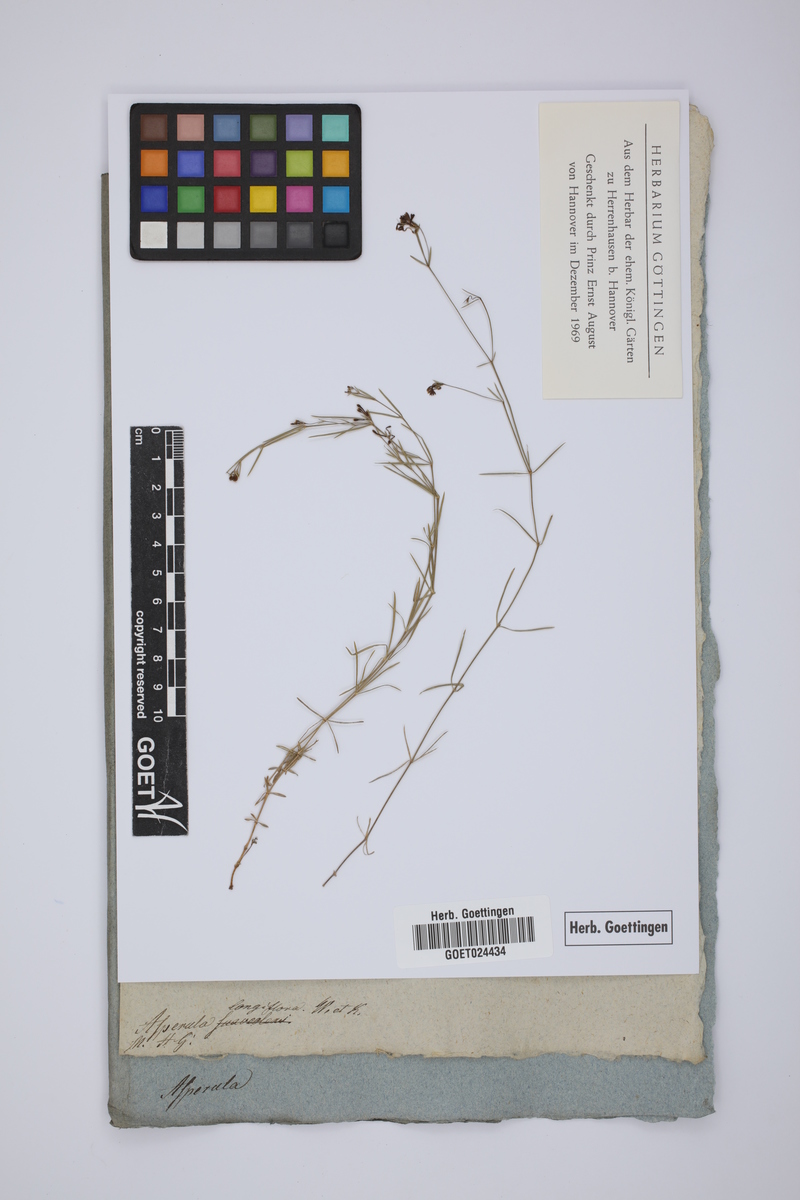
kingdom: Plantae
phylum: Tracheophyta
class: Magnoliopsida
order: Gentianales
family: Rubiaceae
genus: Cynanchica
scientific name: Cynanchica aristata
